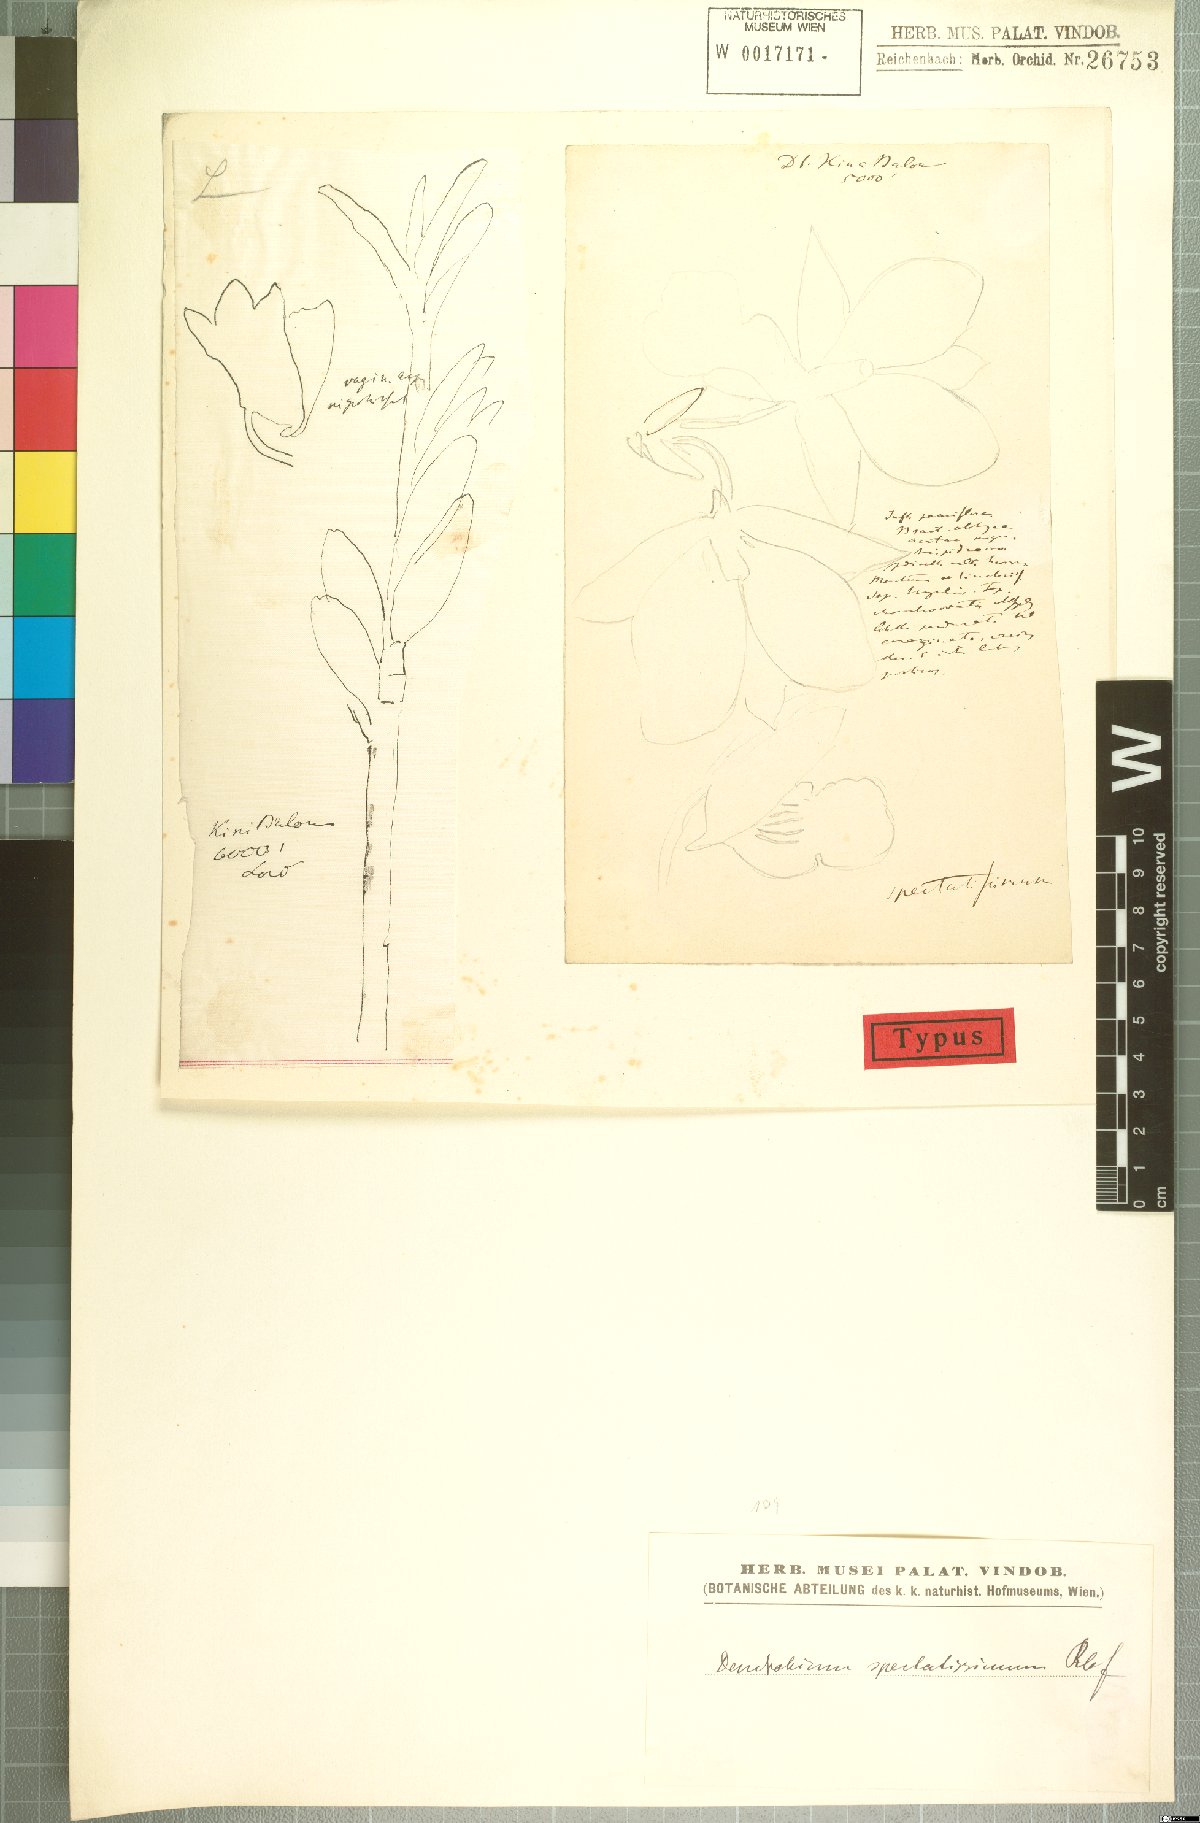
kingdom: Plantae
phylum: Tracheophyta
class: Liliopsida
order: Asparagales
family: Orchidaceae
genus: Dendrobium
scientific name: Dendrobium spectatissimum
